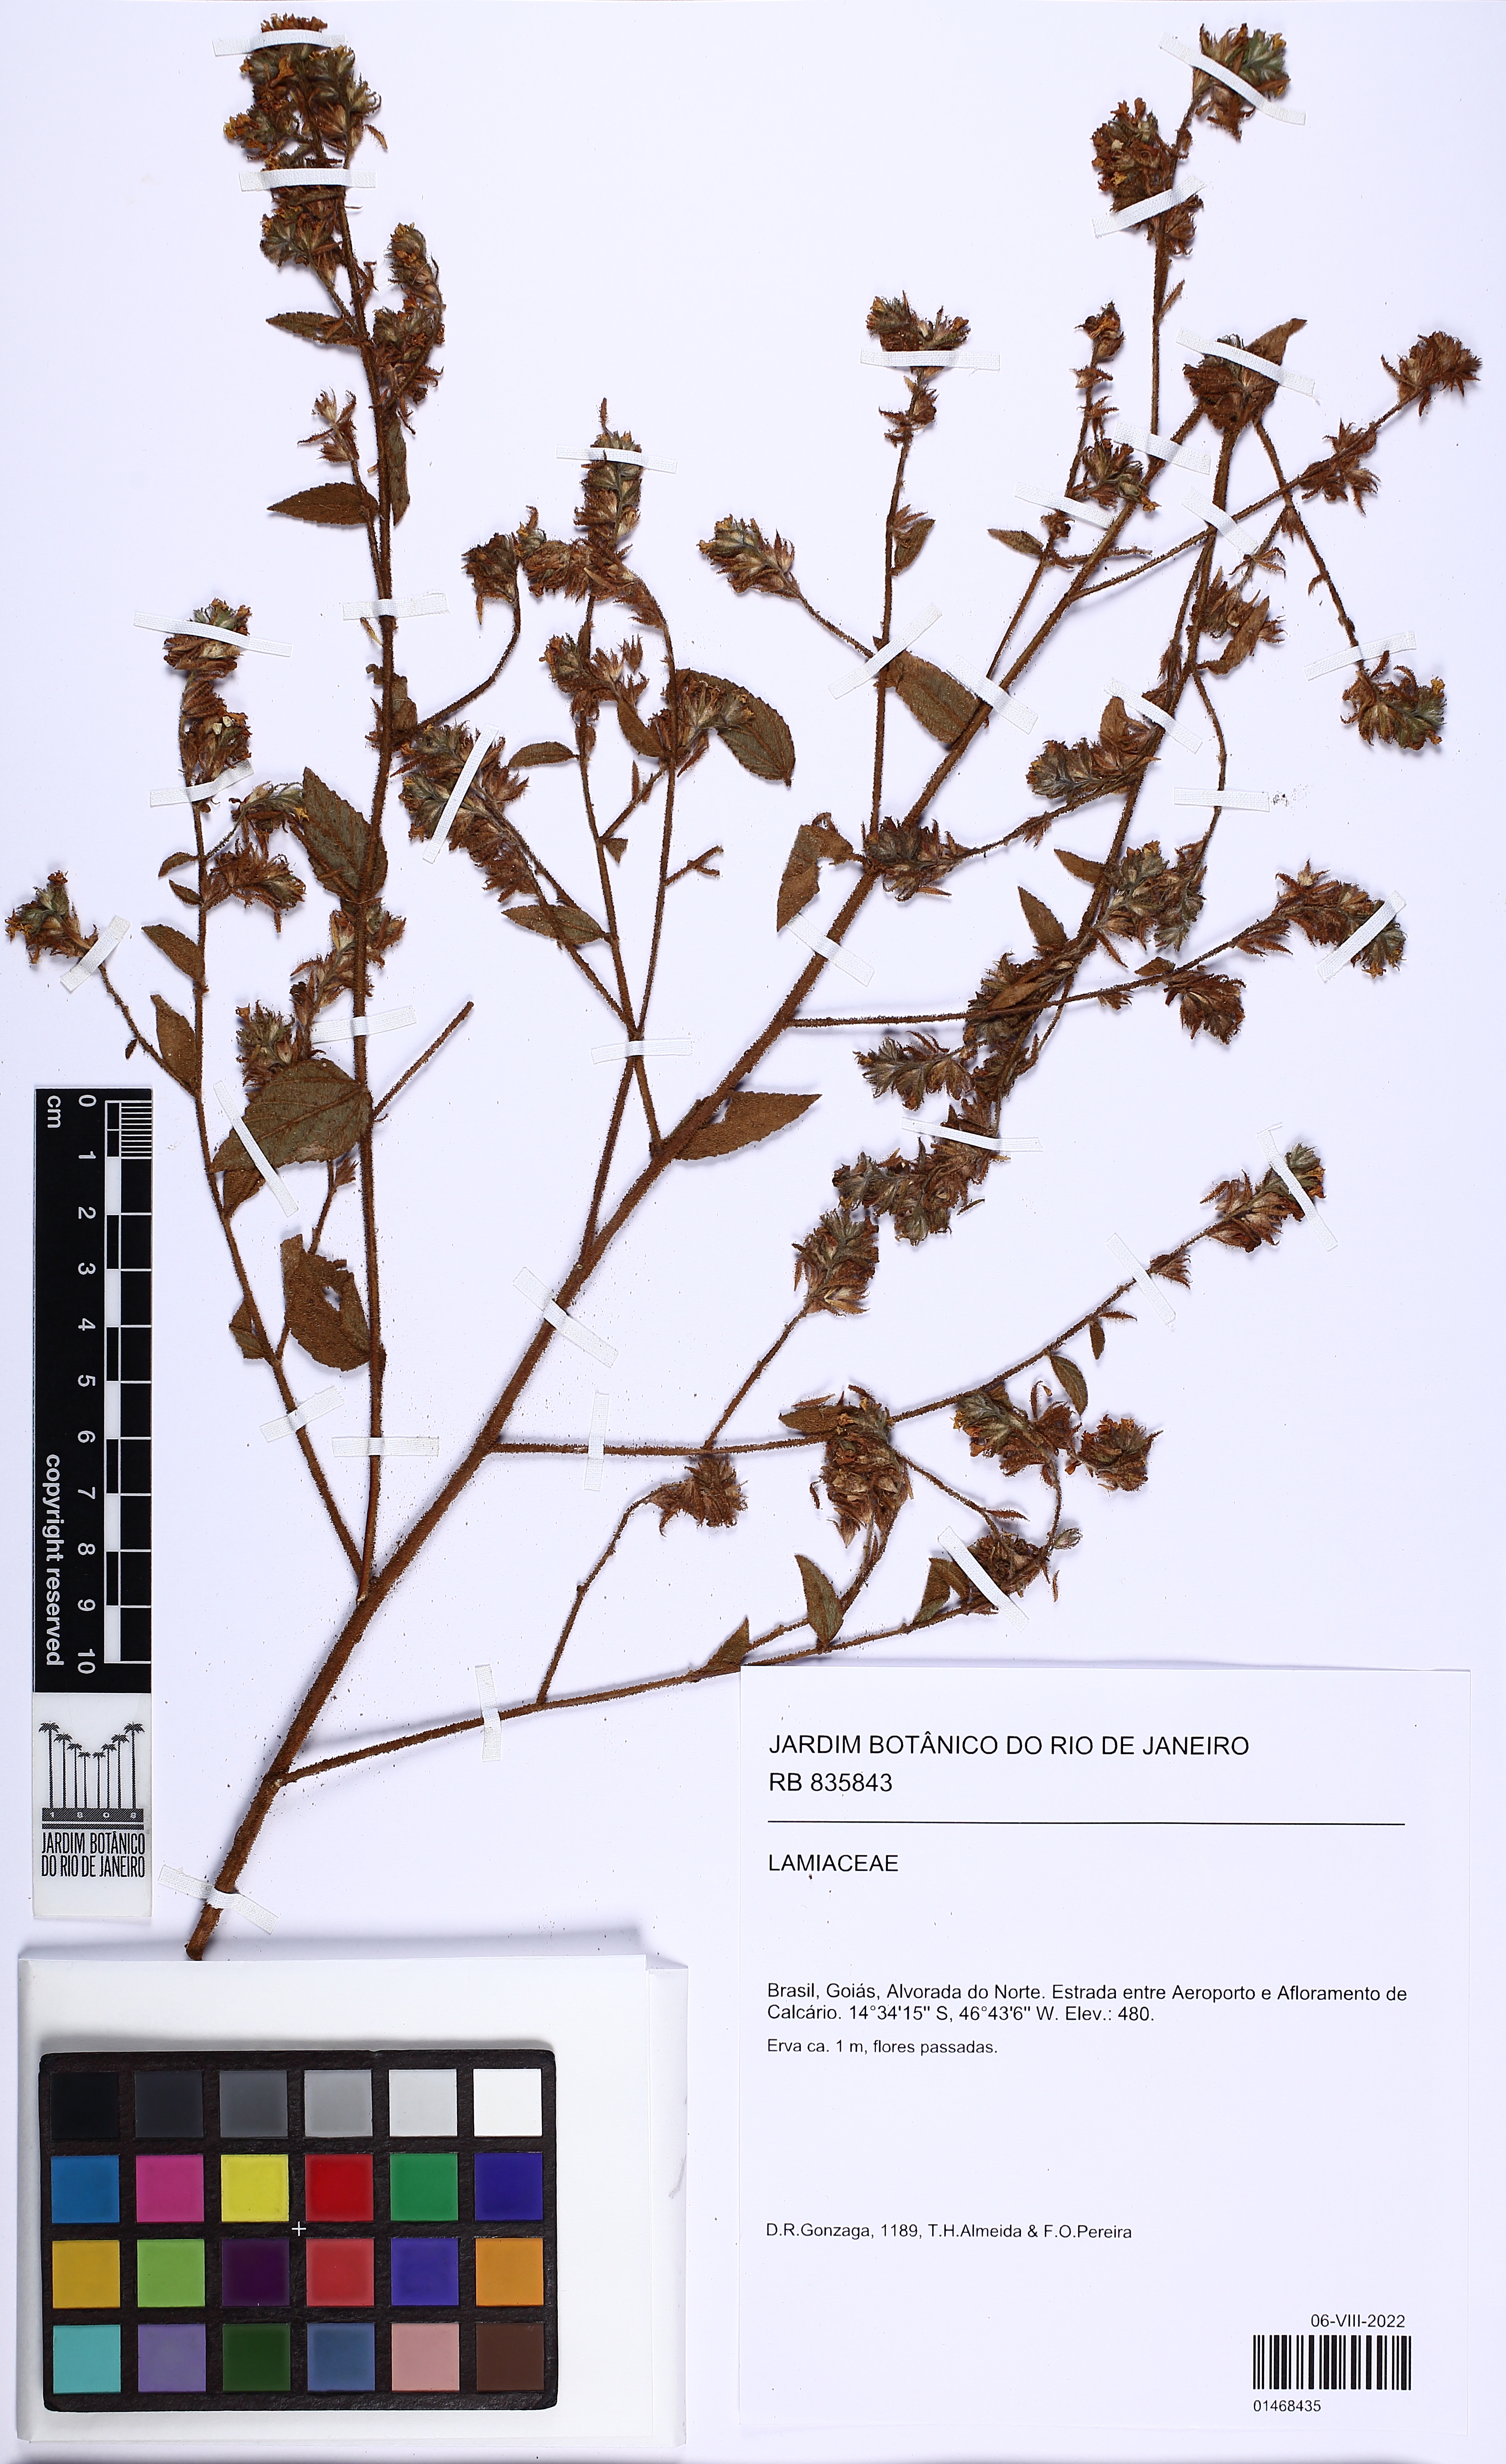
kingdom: Plantae
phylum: Tracheophyta
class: Magnoliopsida
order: Malvales
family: Malvaceae
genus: Waltheria
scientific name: Waltheria operculata
